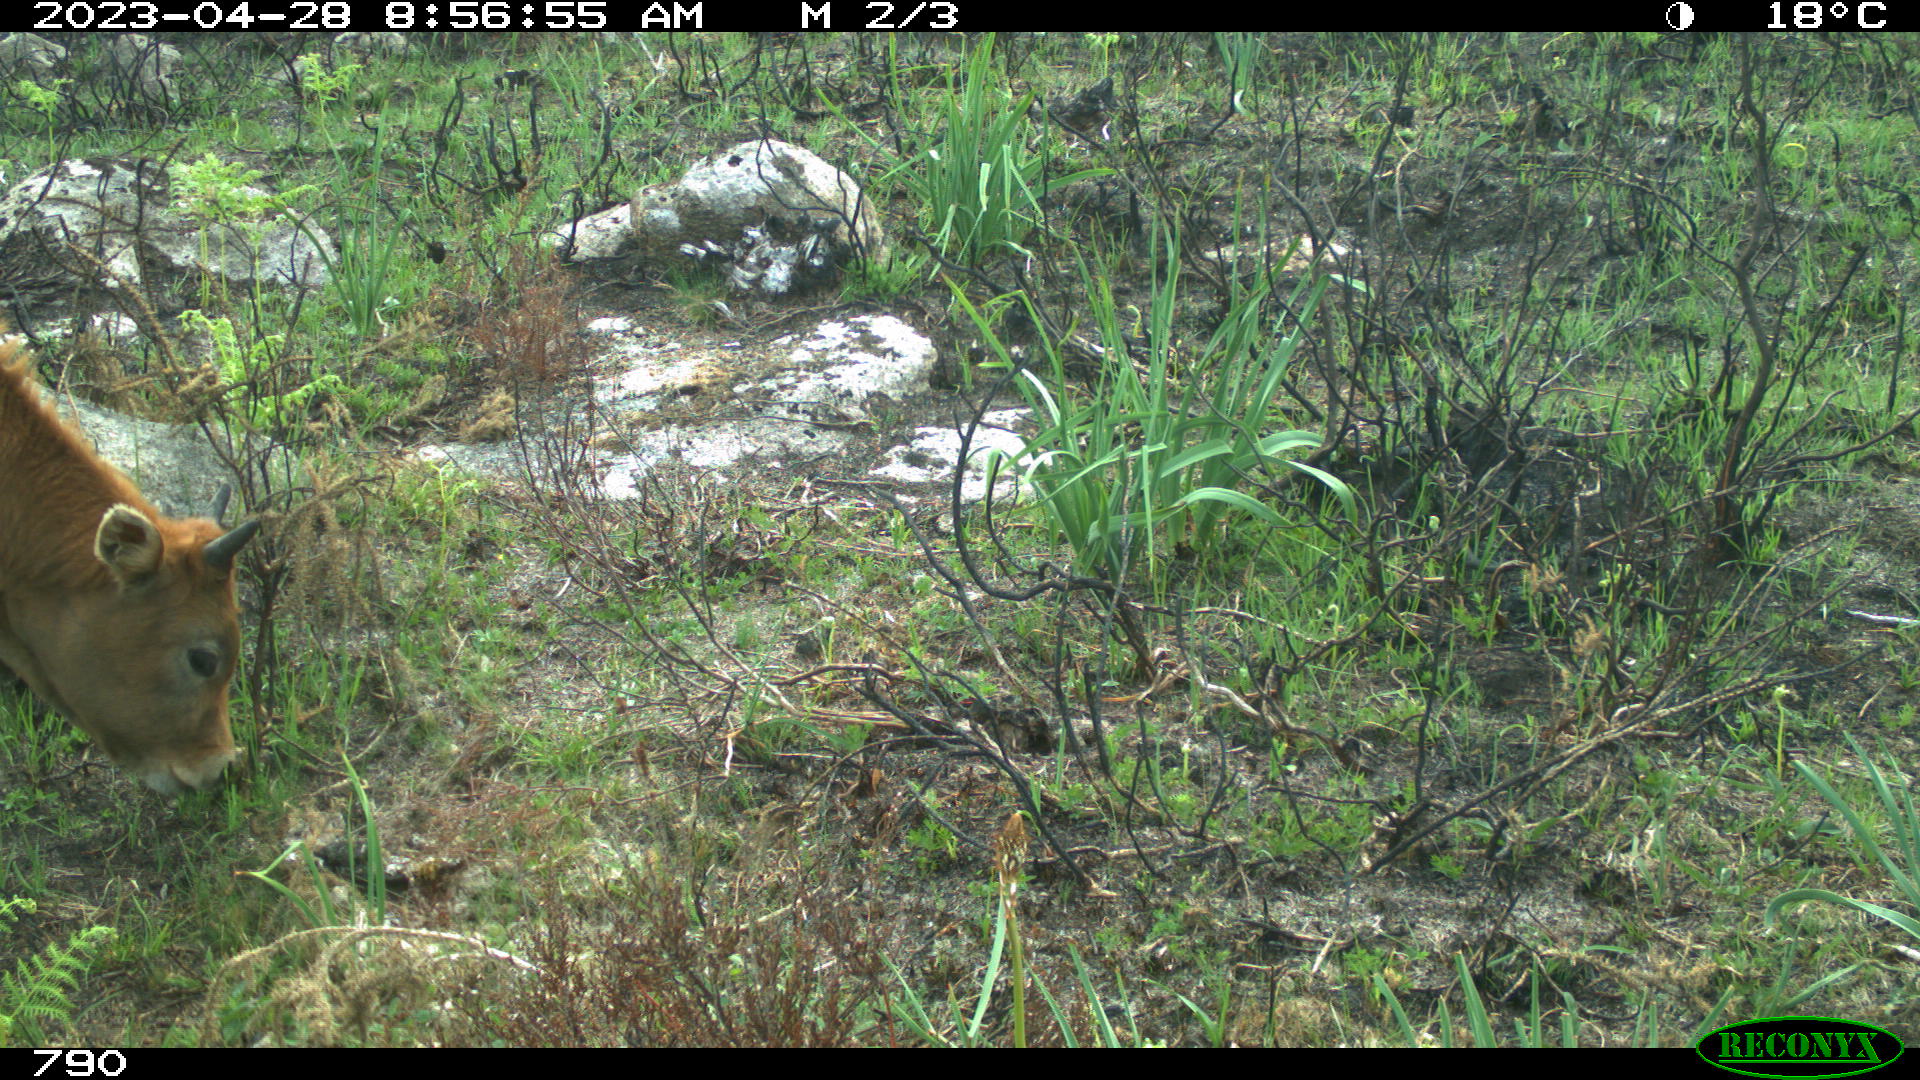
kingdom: Animalia
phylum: Chordata
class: Mammalia
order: Artiodactyla
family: Bovidae
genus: Bos
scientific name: Bos taurus
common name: Domesticated cattle
